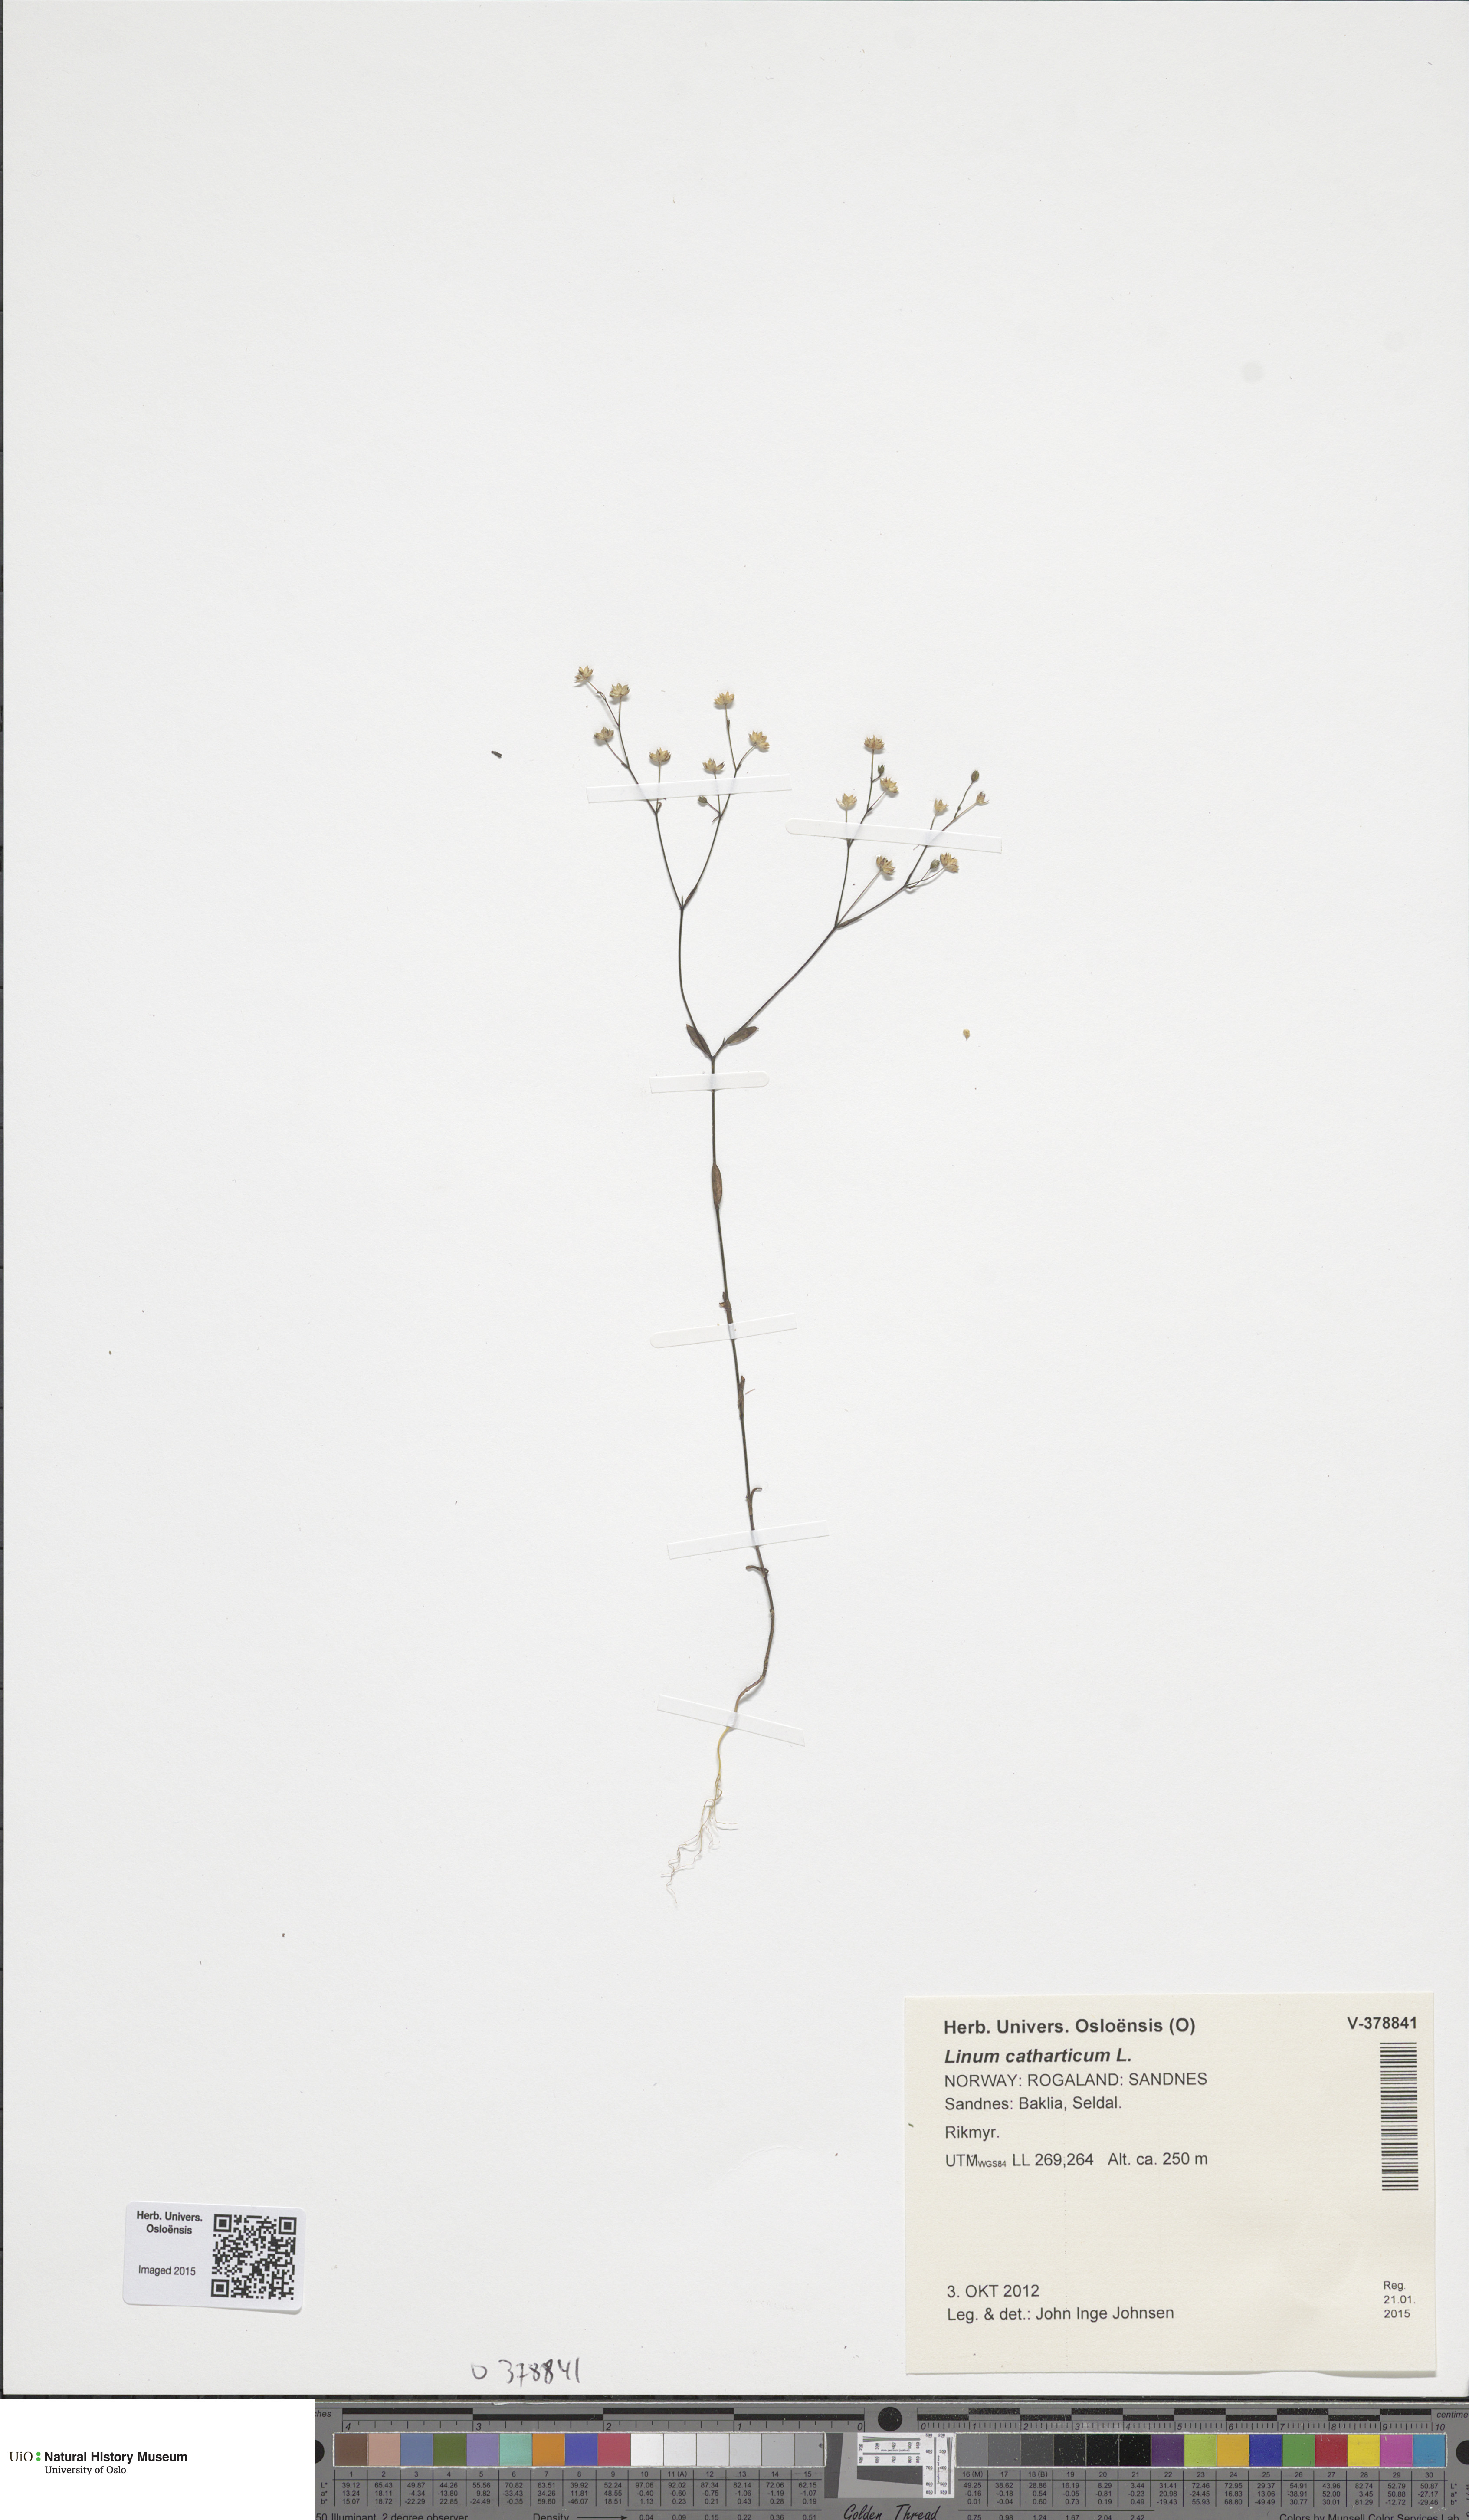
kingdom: Plantae
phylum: Tracheophyta
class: Magnoliopsida
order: Malpighiales
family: Linaceae
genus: Linum
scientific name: Linum catharticum
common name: Fairy flax
